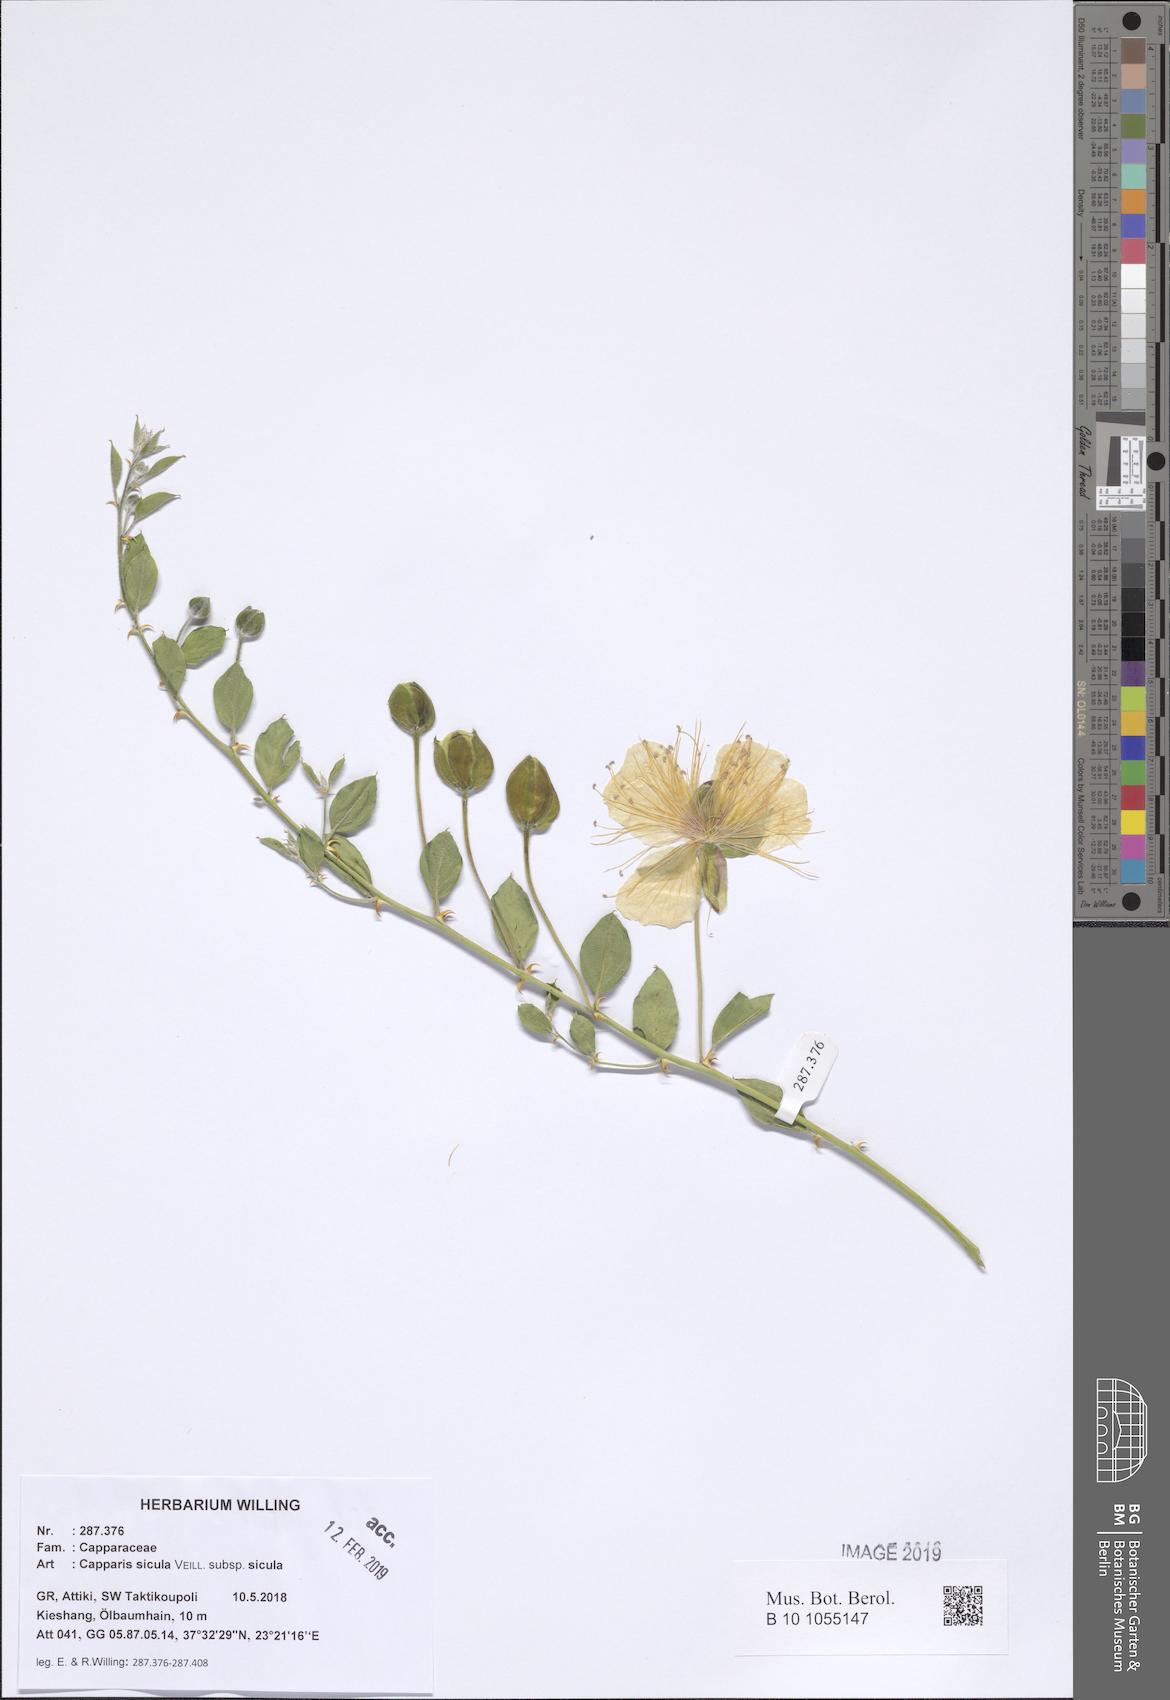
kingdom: Plantae
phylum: Tracheophyta
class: Magnoliopsida
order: Brassicales
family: Capparaceae
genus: Capparis
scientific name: Capparis spinosa
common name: Caper
